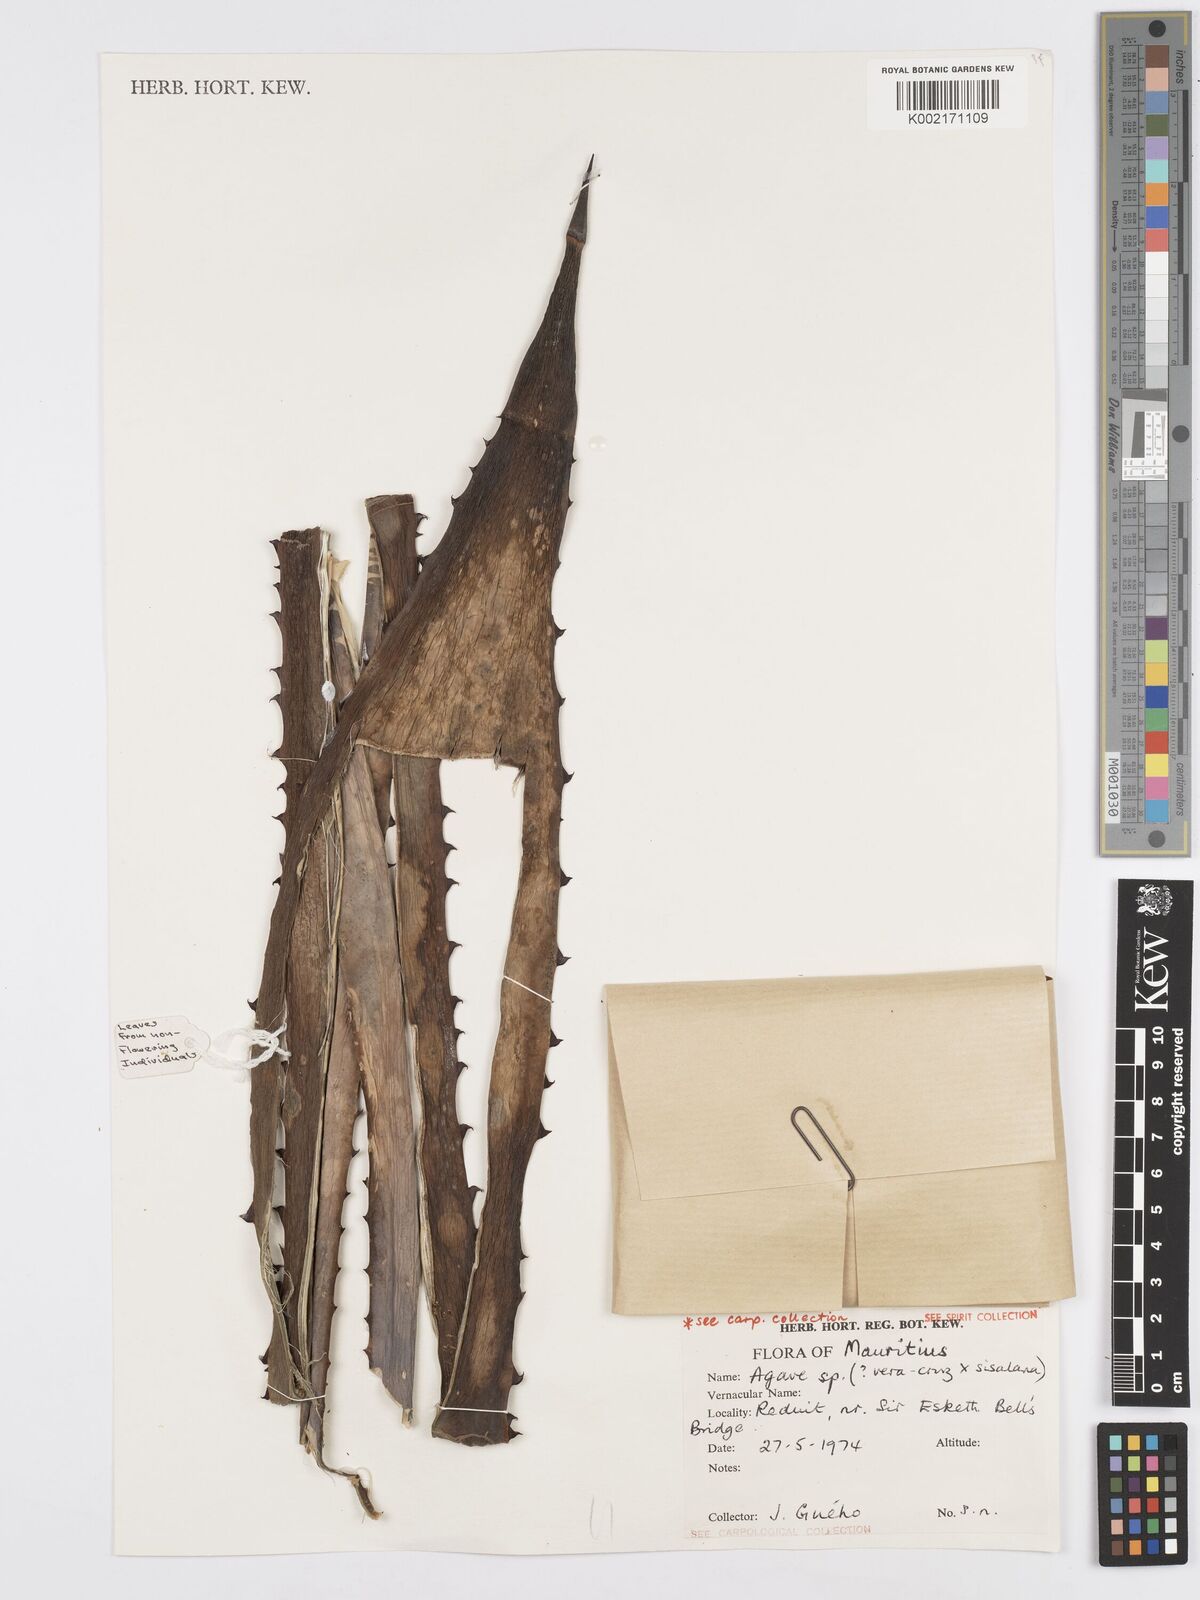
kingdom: Plantae
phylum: Tracheophyta
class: Liliopsida
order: Asparagales
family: Asparagaceae
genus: Agave
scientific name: Agave
